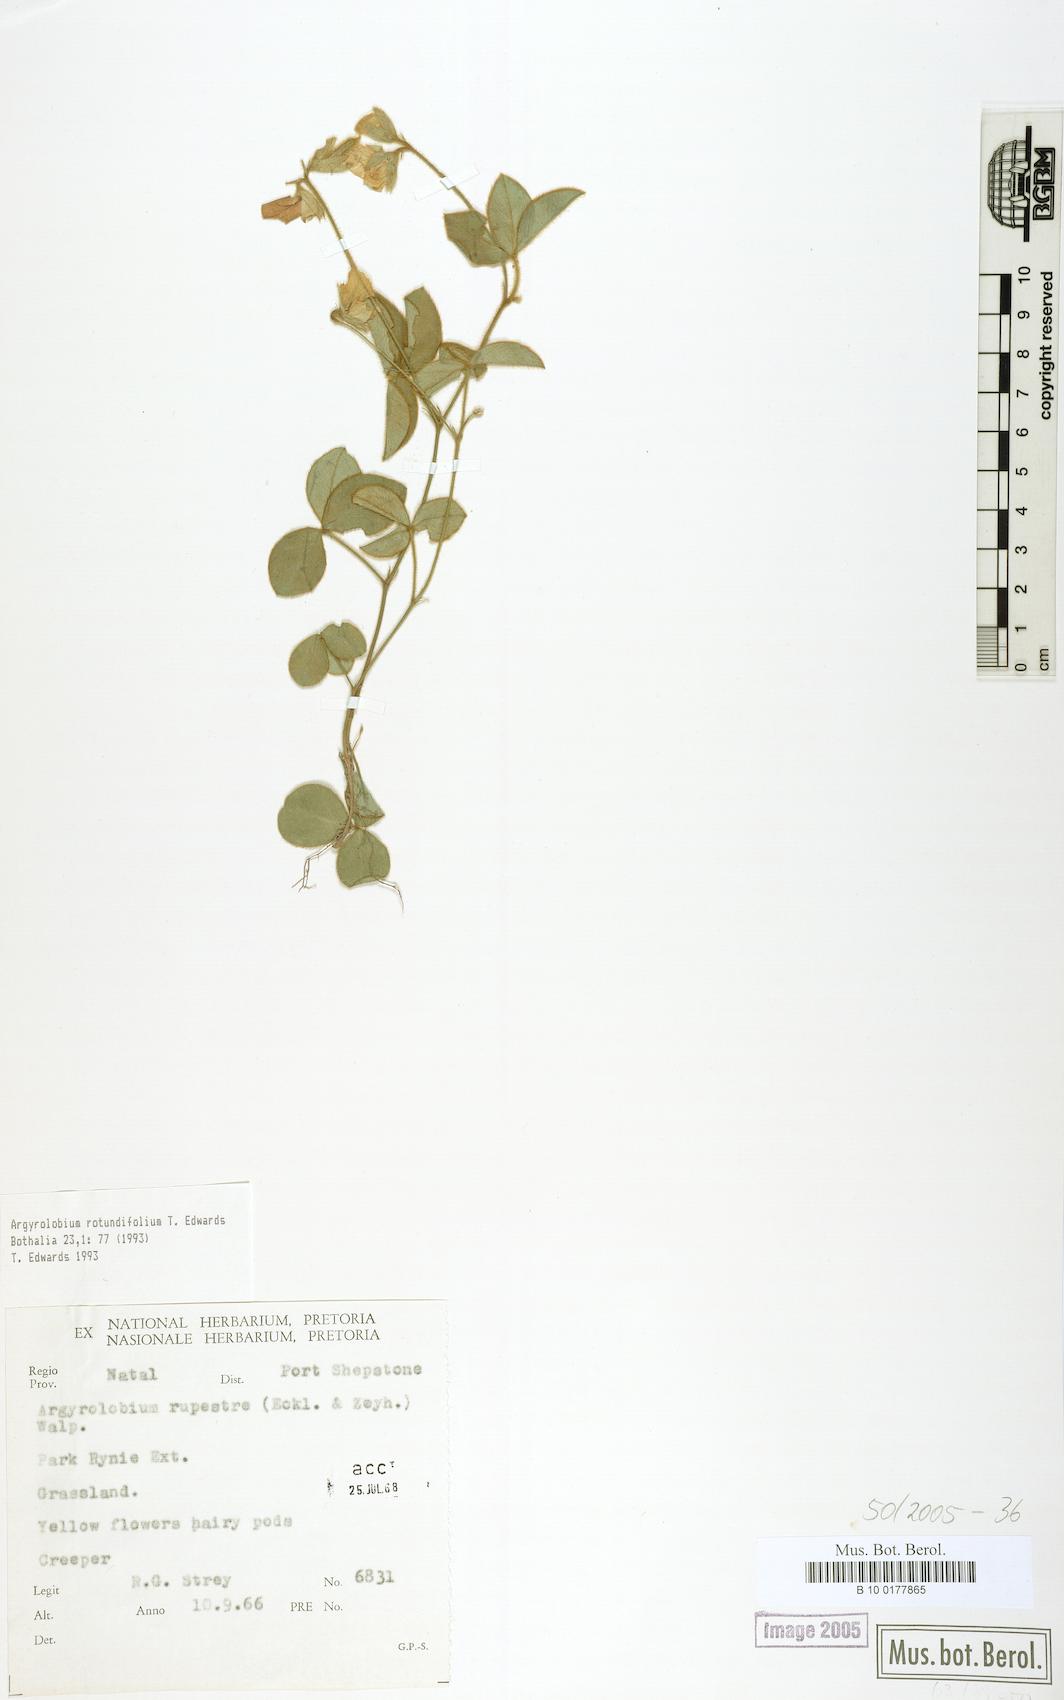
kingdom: Plantae
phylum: Tracheophyta
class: Magnoliopsida
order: Fabales
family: Fabaceae
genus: Argyrolobium
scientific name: Argyrolobium rotundifolium
